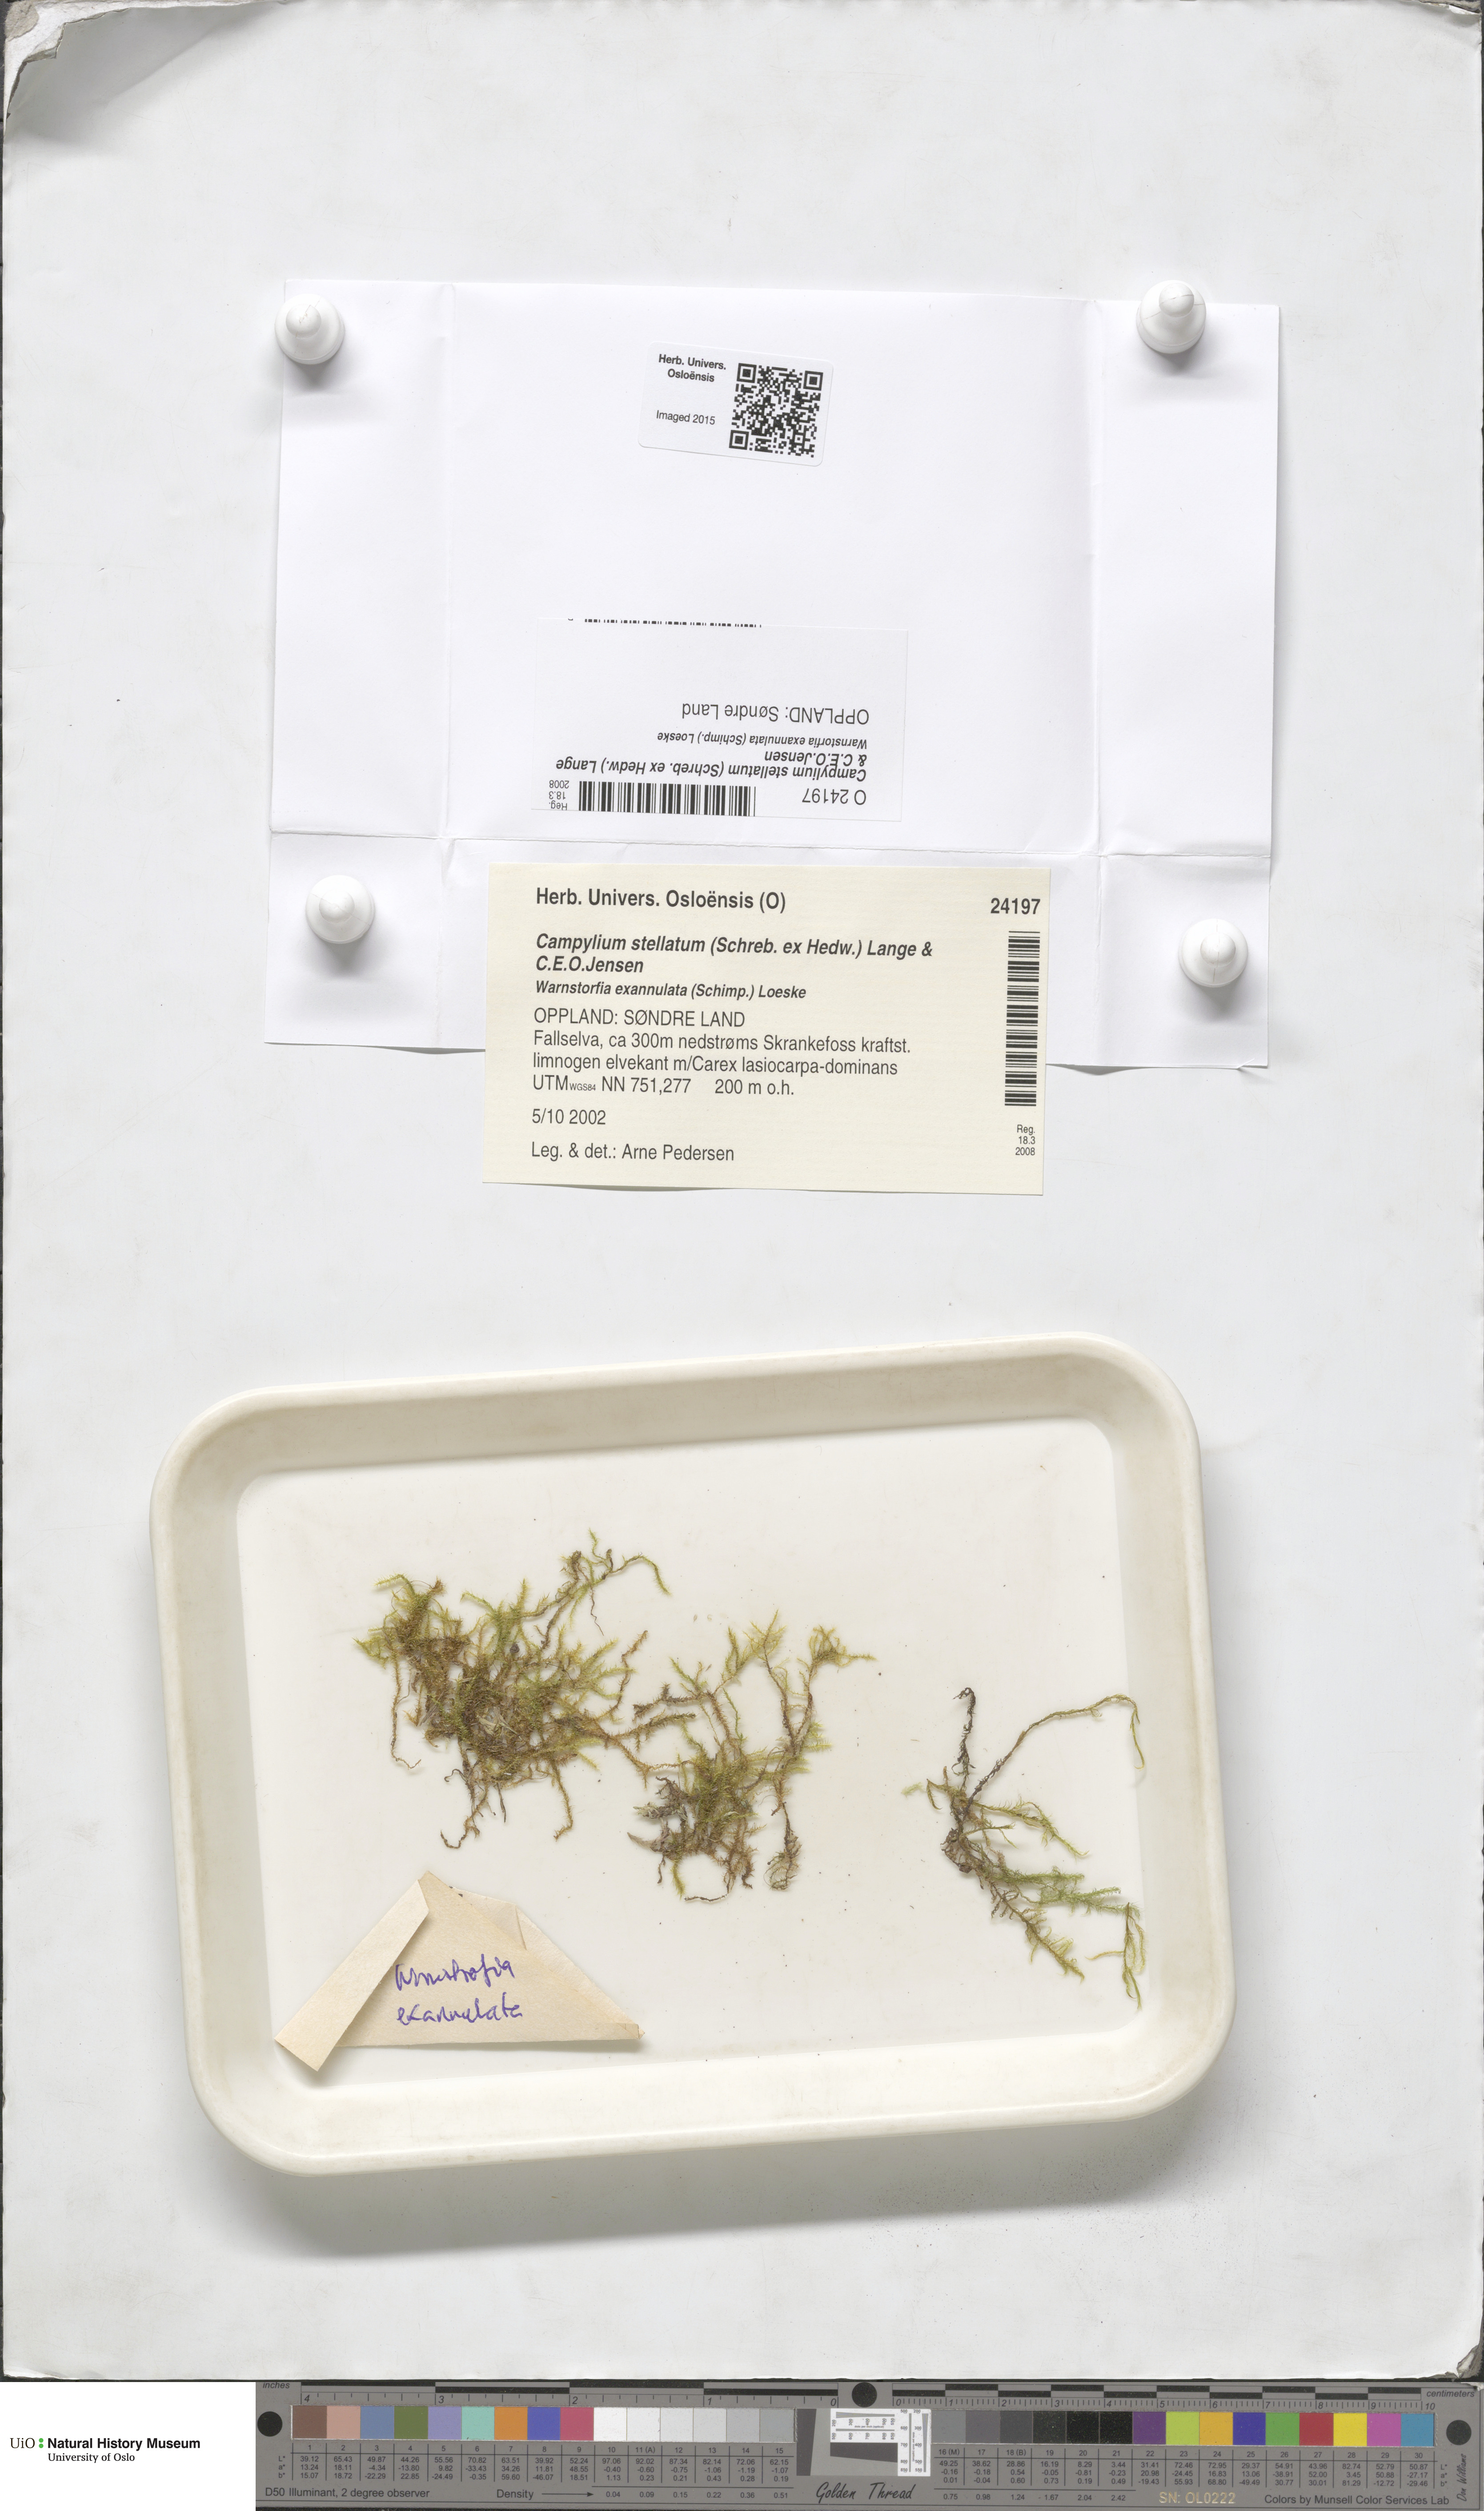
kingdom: Plantae
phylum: Bryophyta
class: Bryopsida
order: Hypnales
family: Amblystegiaceae
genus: Campylium
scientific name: Campylium stellatum
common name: Yellow starry fen moss
